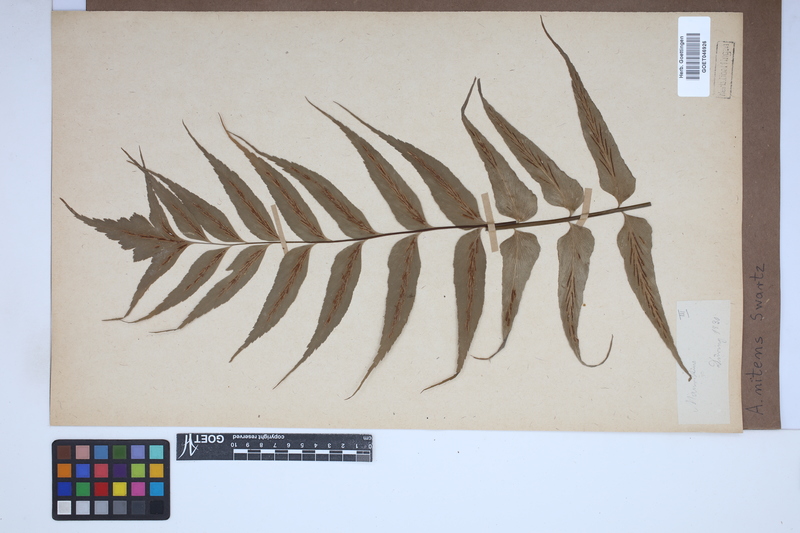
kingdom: Plantae
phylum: Tracheophyta
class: Polypodiopsida
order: Polypodiales
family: Aspleniaceae
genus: Asplenium
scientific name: Asplenium nitens
